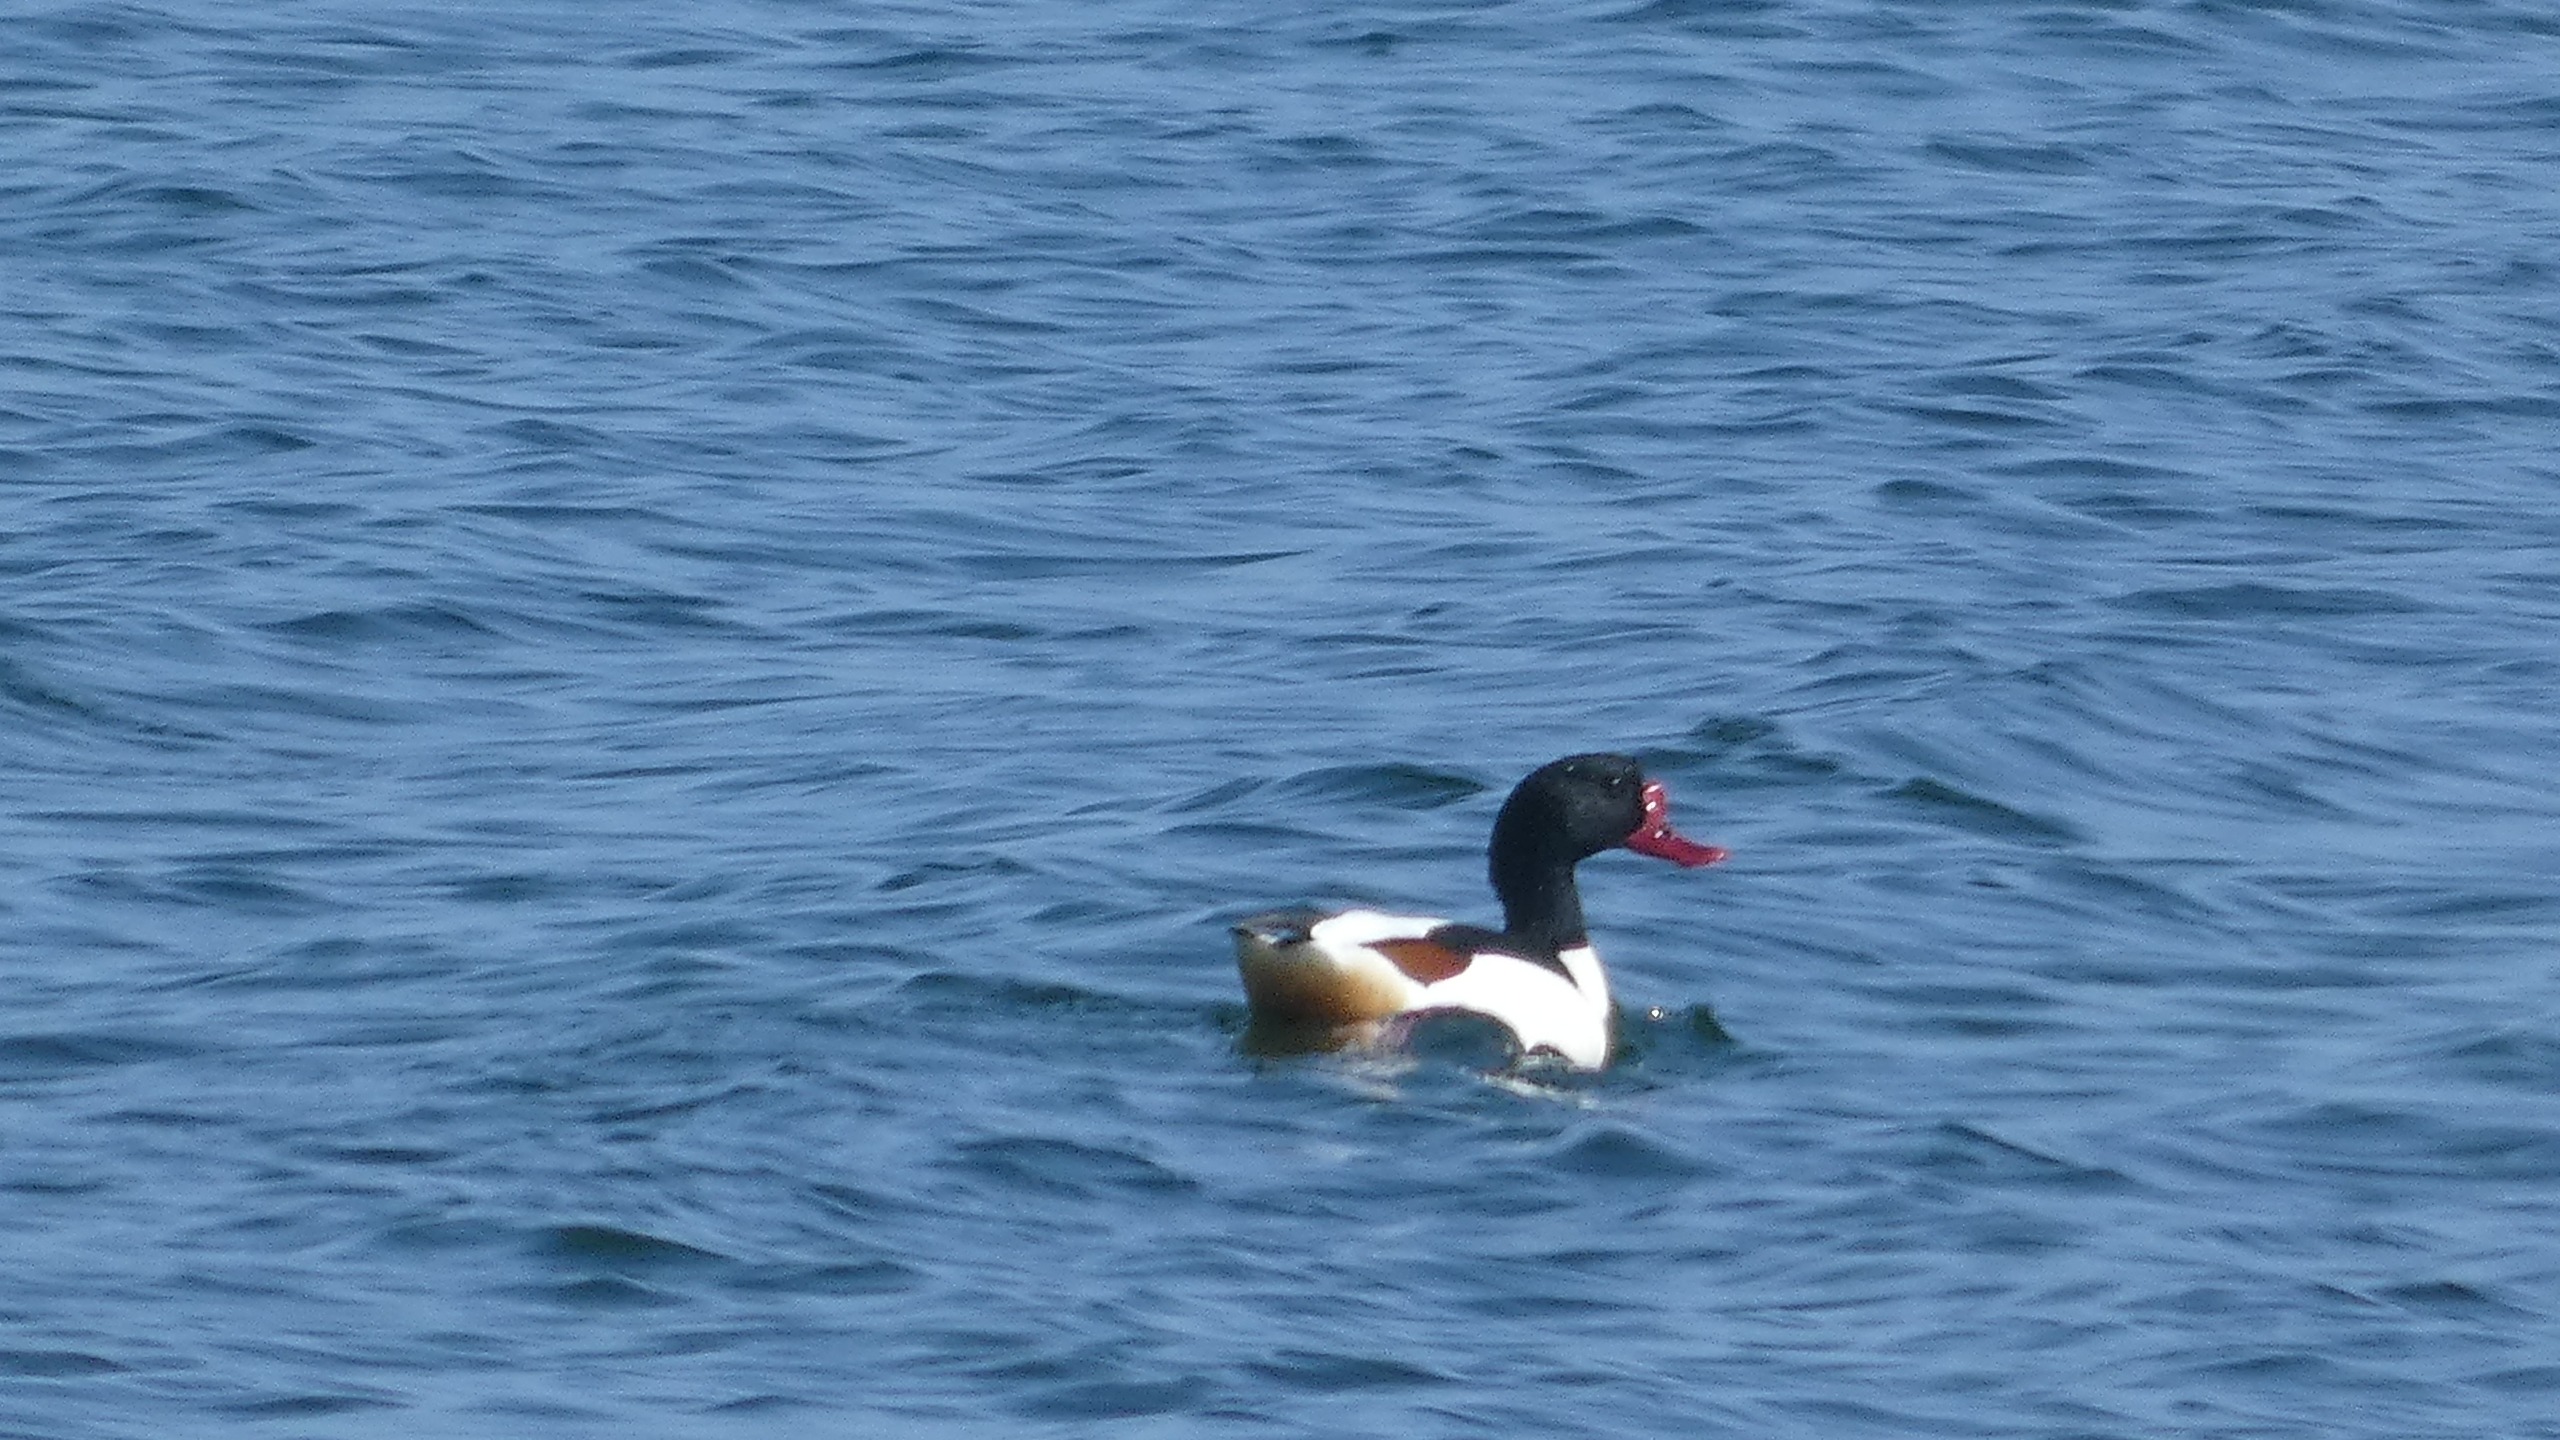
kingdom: Animalia
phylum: Chordata
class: Aves
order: Anseriformes
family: Anatidae
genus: Tadorna
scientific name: Tadorna tadorna
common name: Gravand
